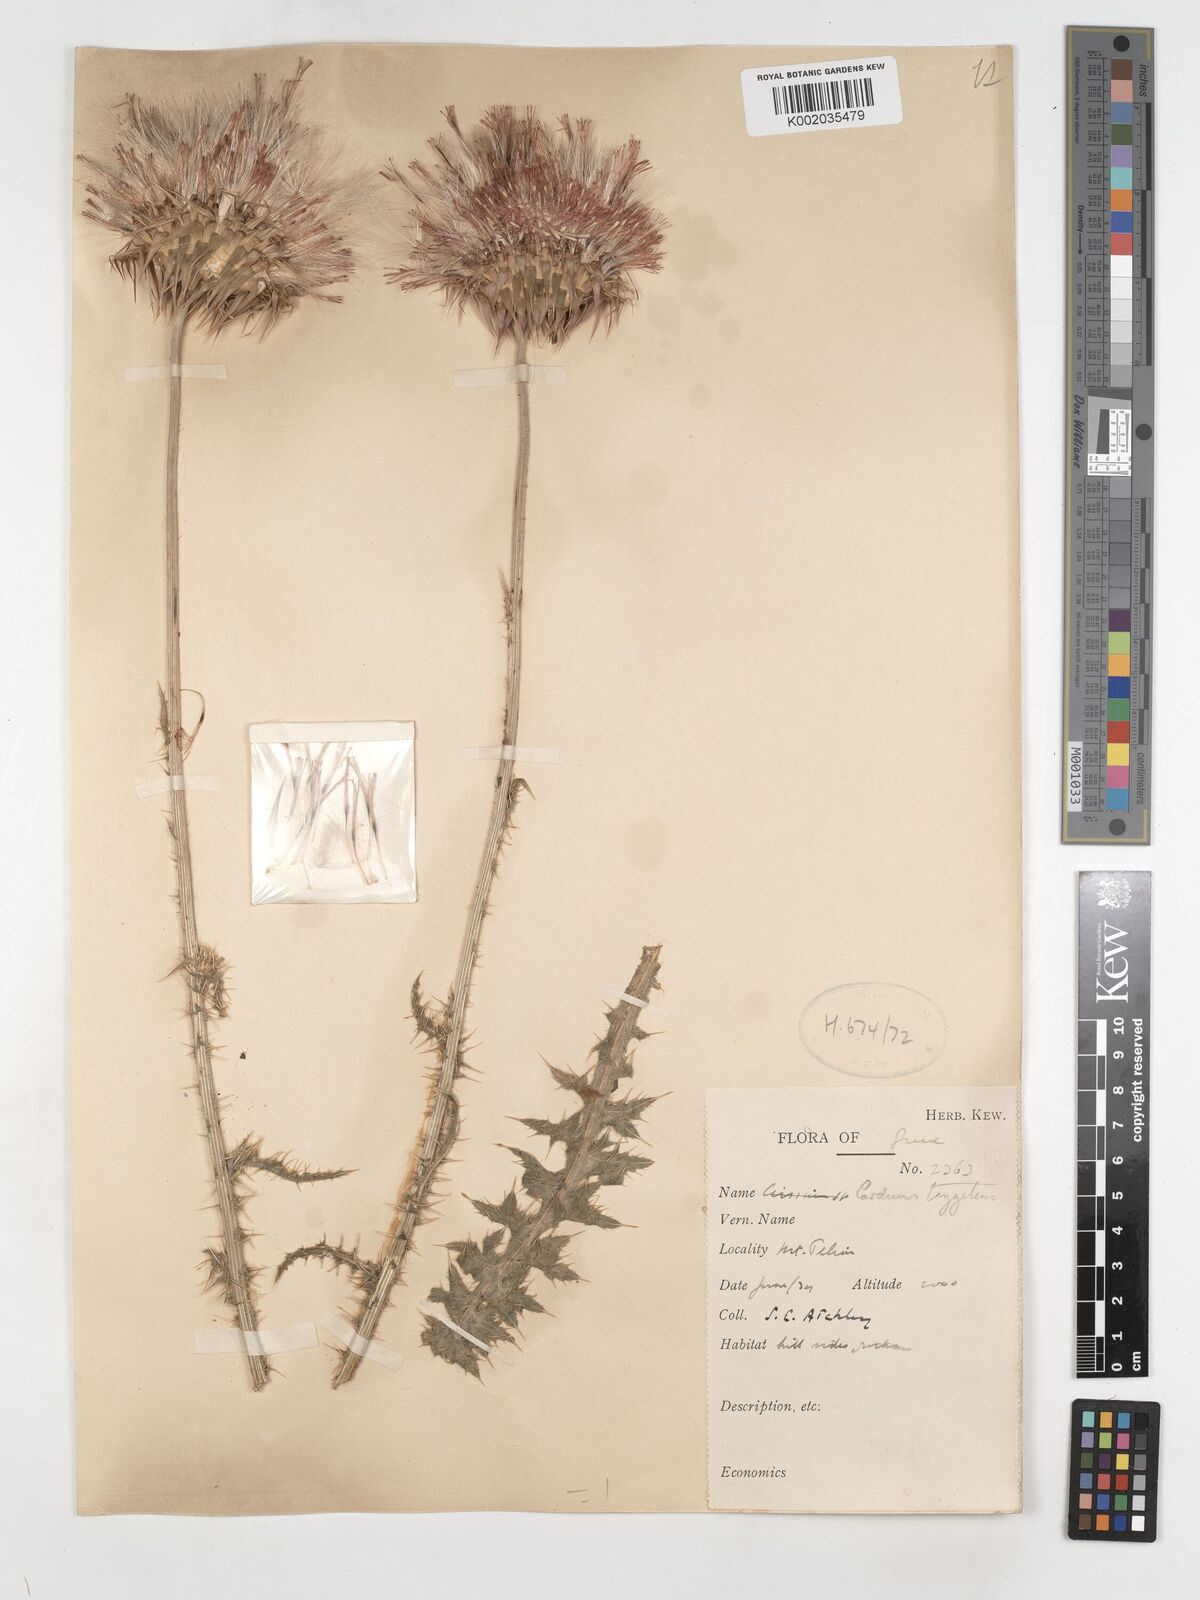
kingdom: Plantae
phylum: Tracheophyta
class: Magnoliopsida
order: Asterales
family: Asteraceae
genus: Carduus
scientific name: Carduus nutans
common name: Musk thistle
